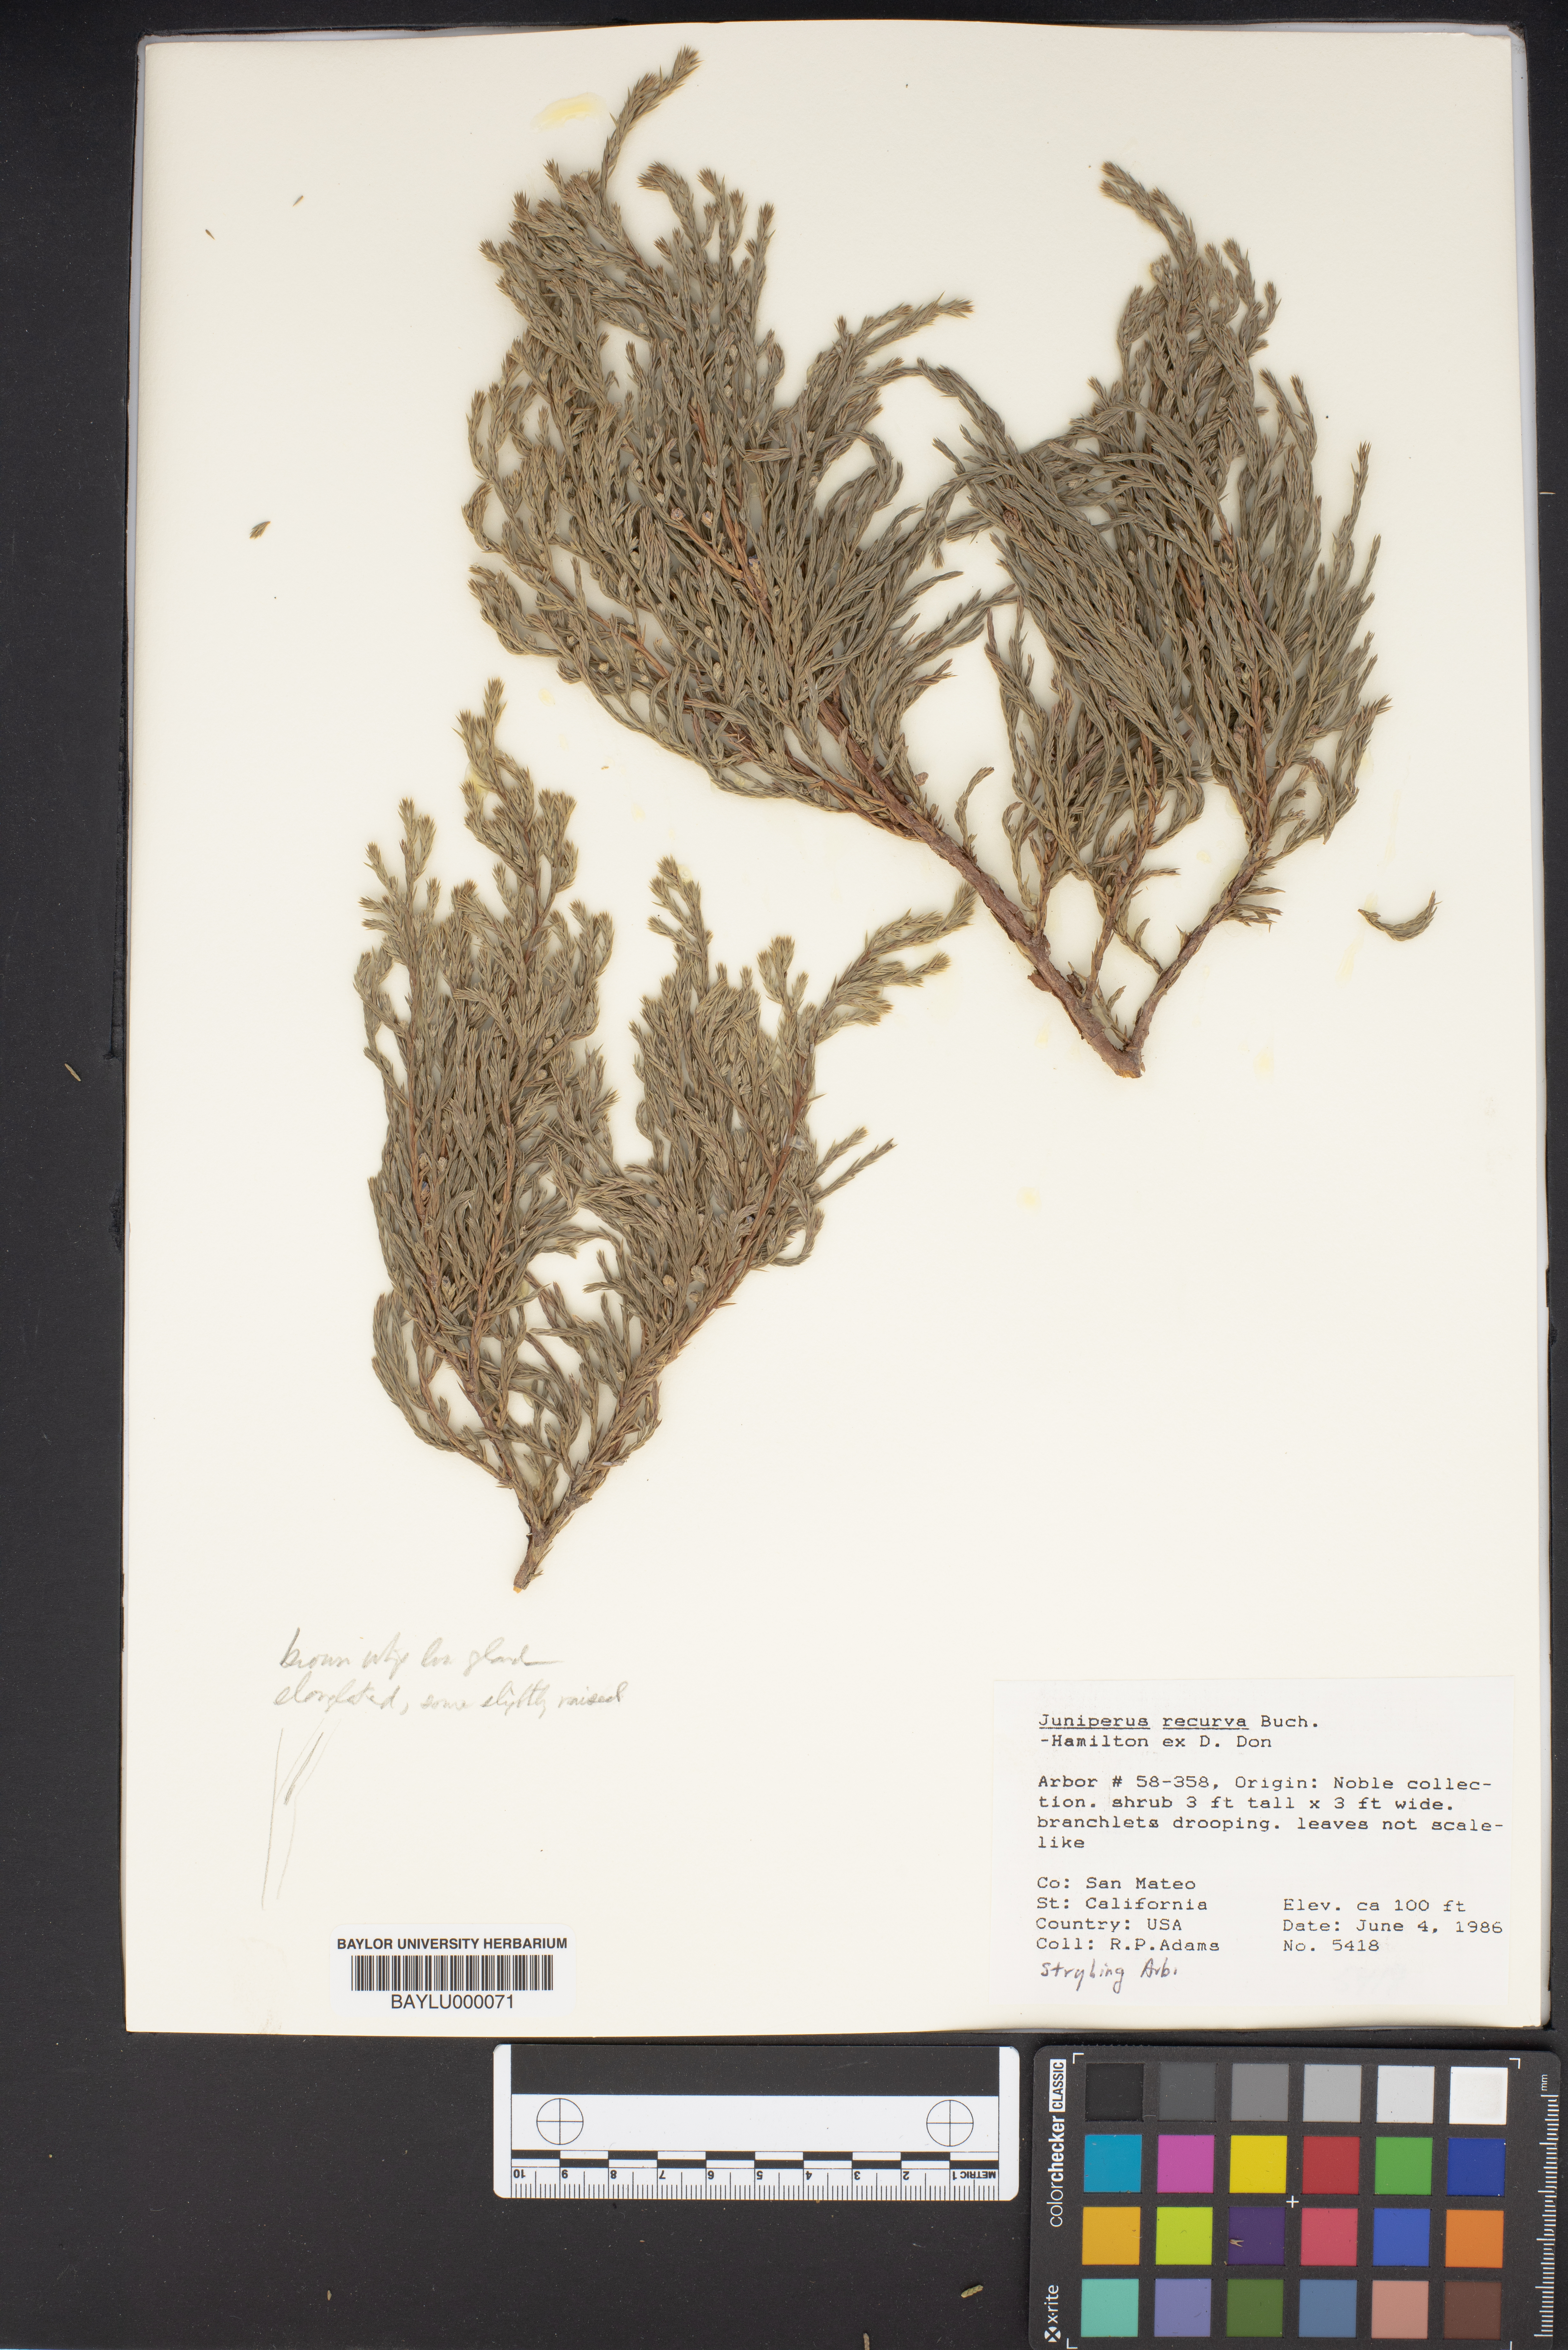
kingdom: Plantae
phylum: Tracheophyta
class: Pinopsida
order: Pinales
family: Cupressaceae
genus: Juniperus
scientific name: Juniperus recurva
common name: Drooping juniper
